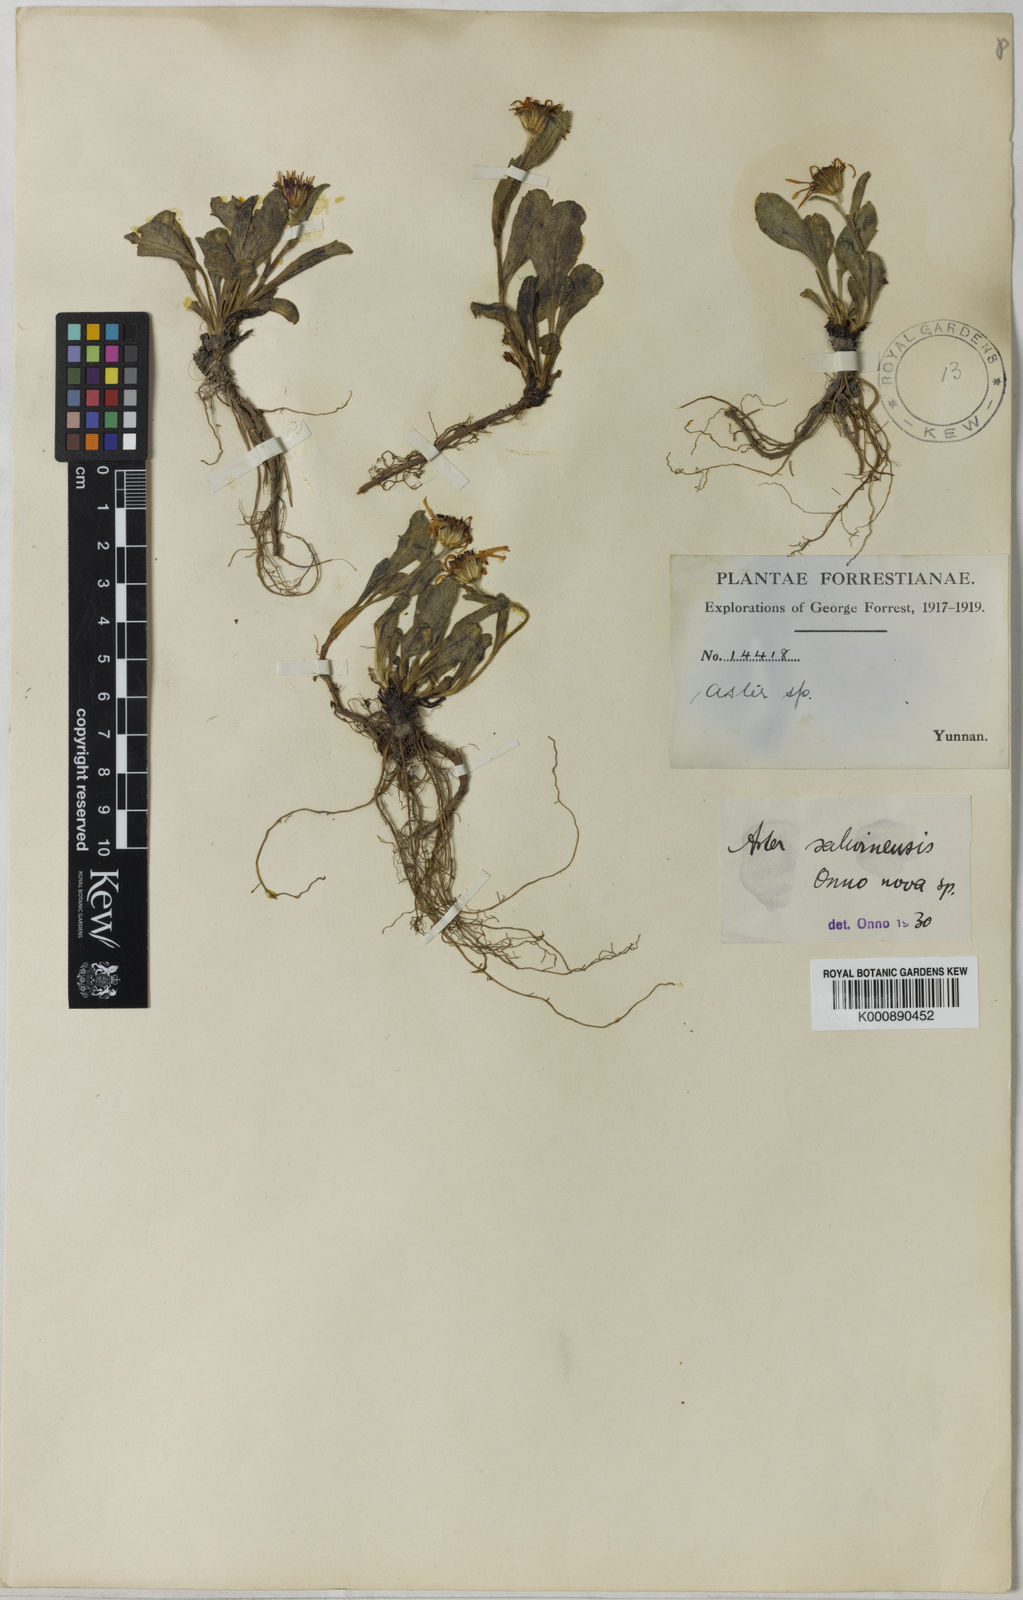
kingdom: Plantae
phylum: Tracheophyta
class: Magnoliopsida
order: Asterales
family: Asteraceae
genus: Tibetiodes
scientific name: Tibetiodes salwinensis
